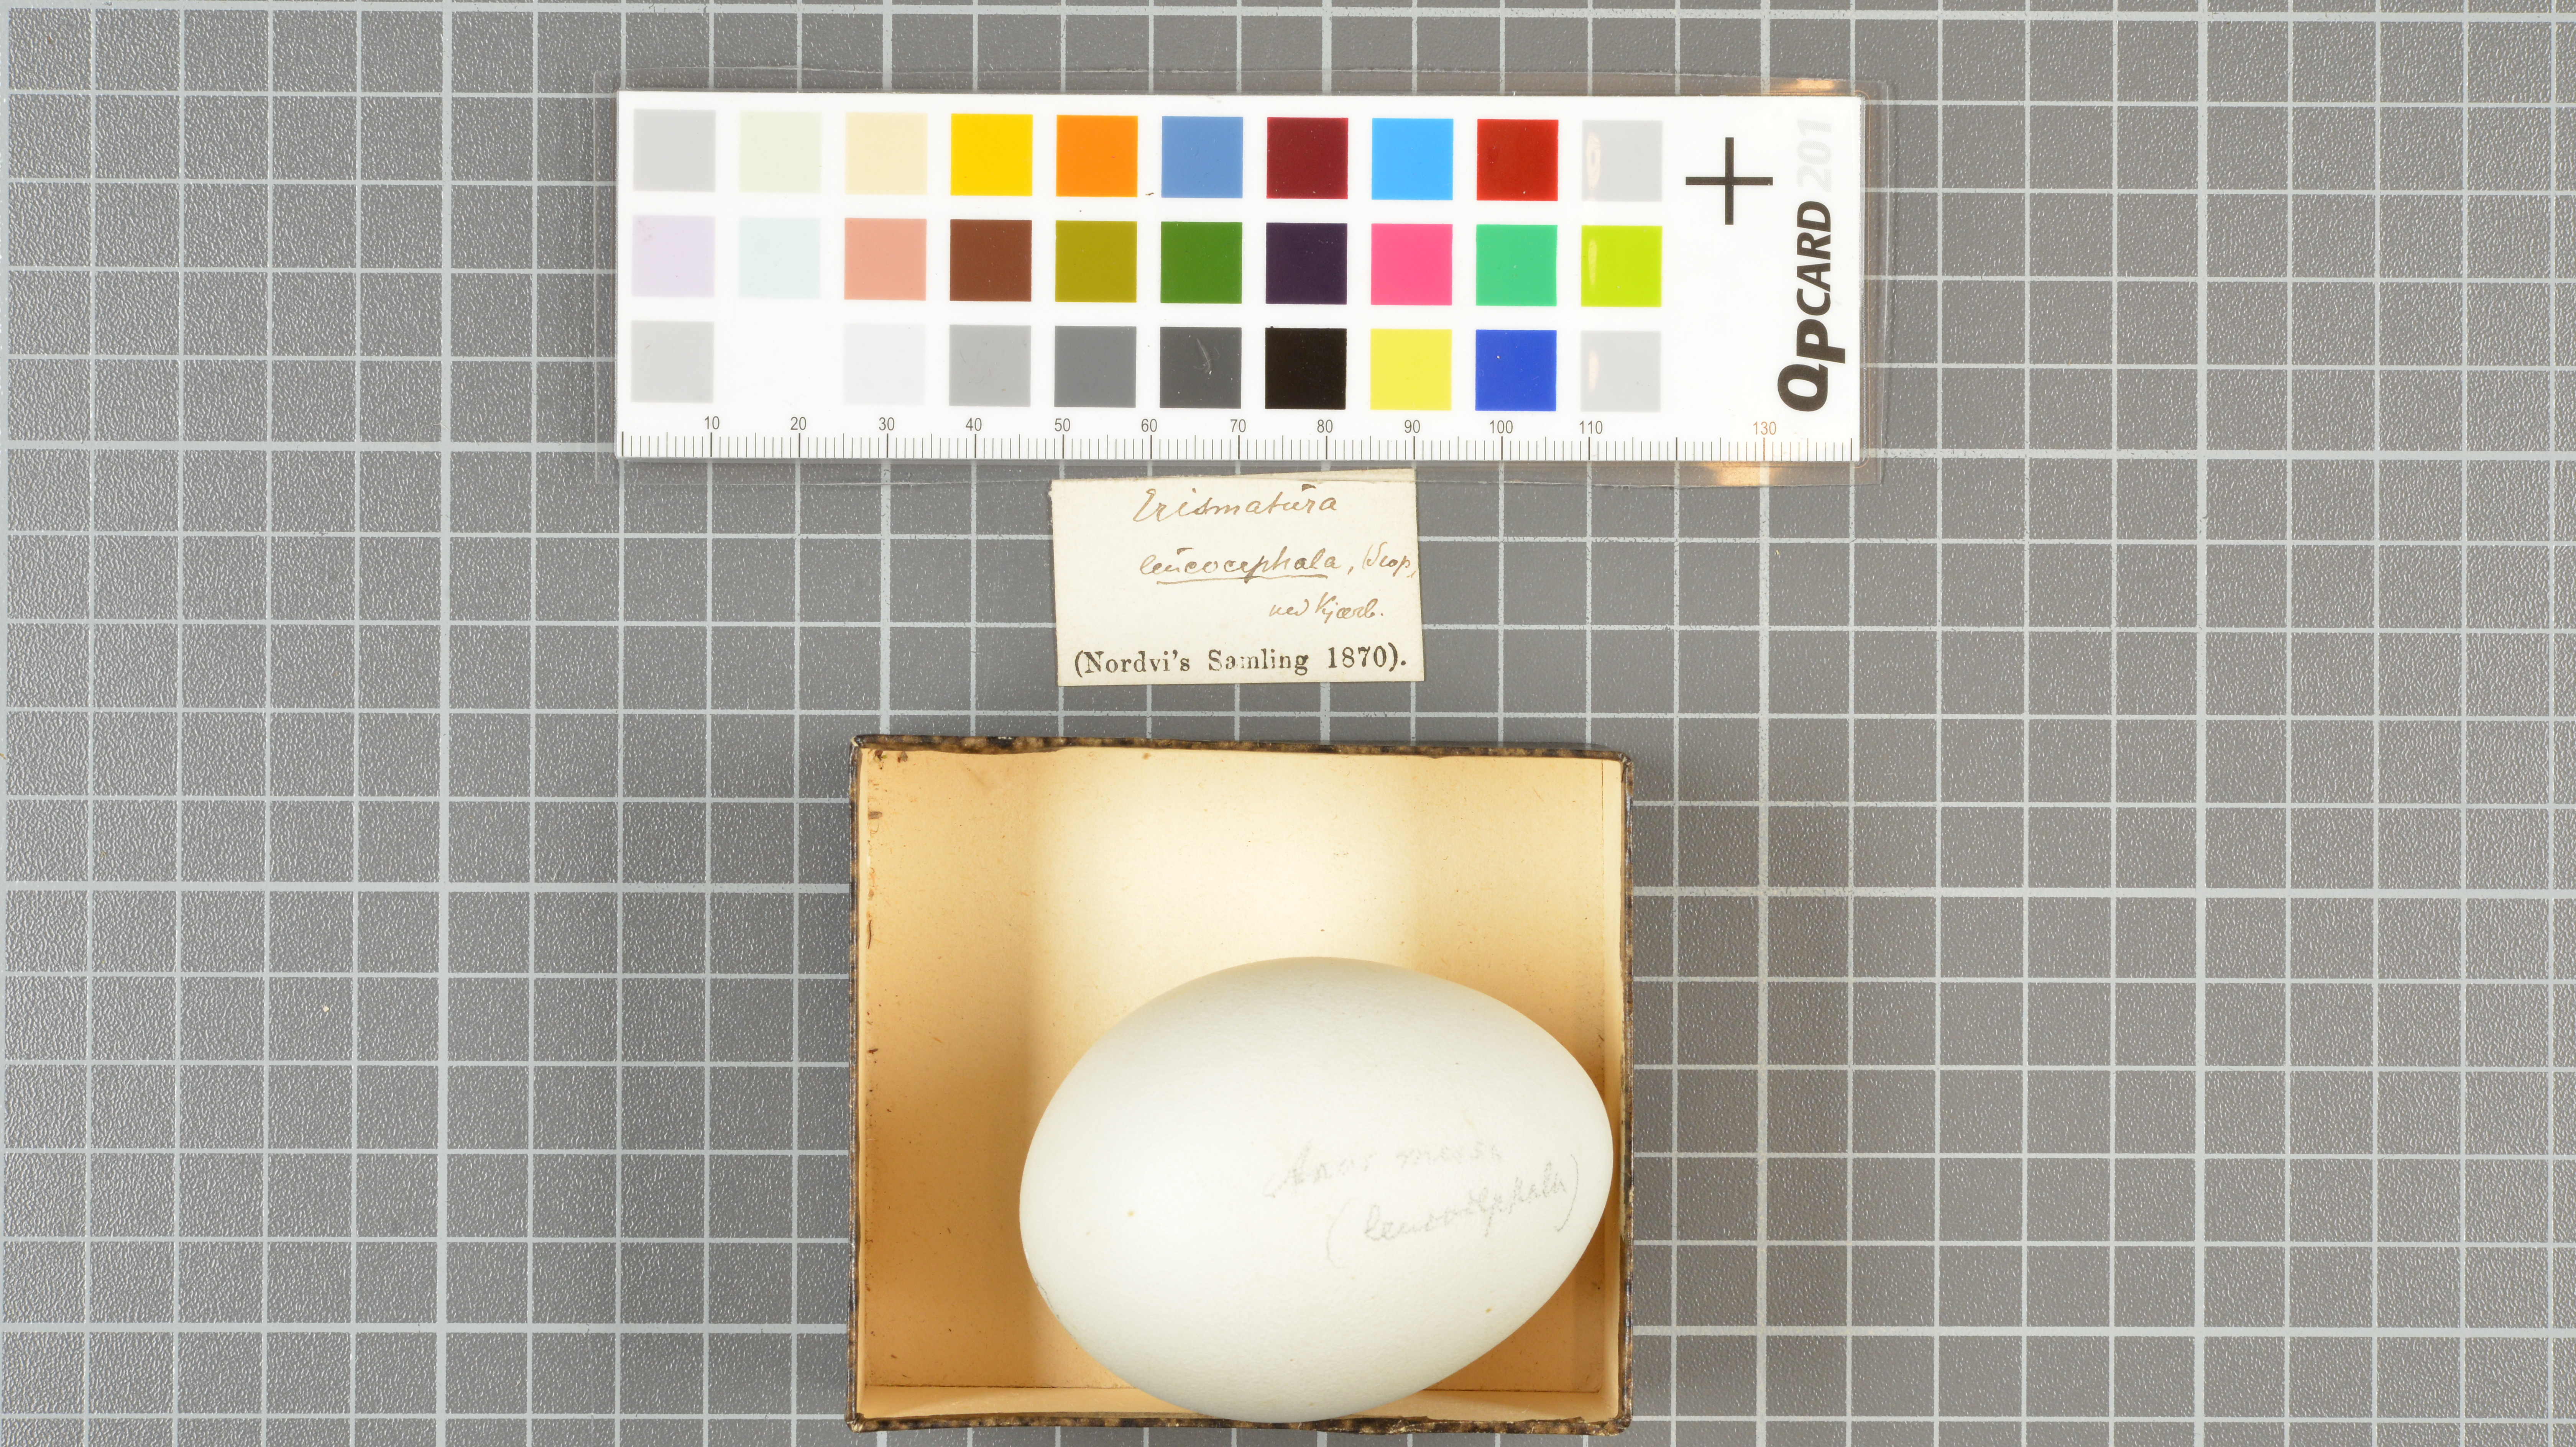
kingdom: Animalia
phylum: Chordata
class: Aves
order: Anseriformes
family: Anatidae
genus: Oxyura
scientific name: Oxyura leucocephala
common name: White-headed duck
